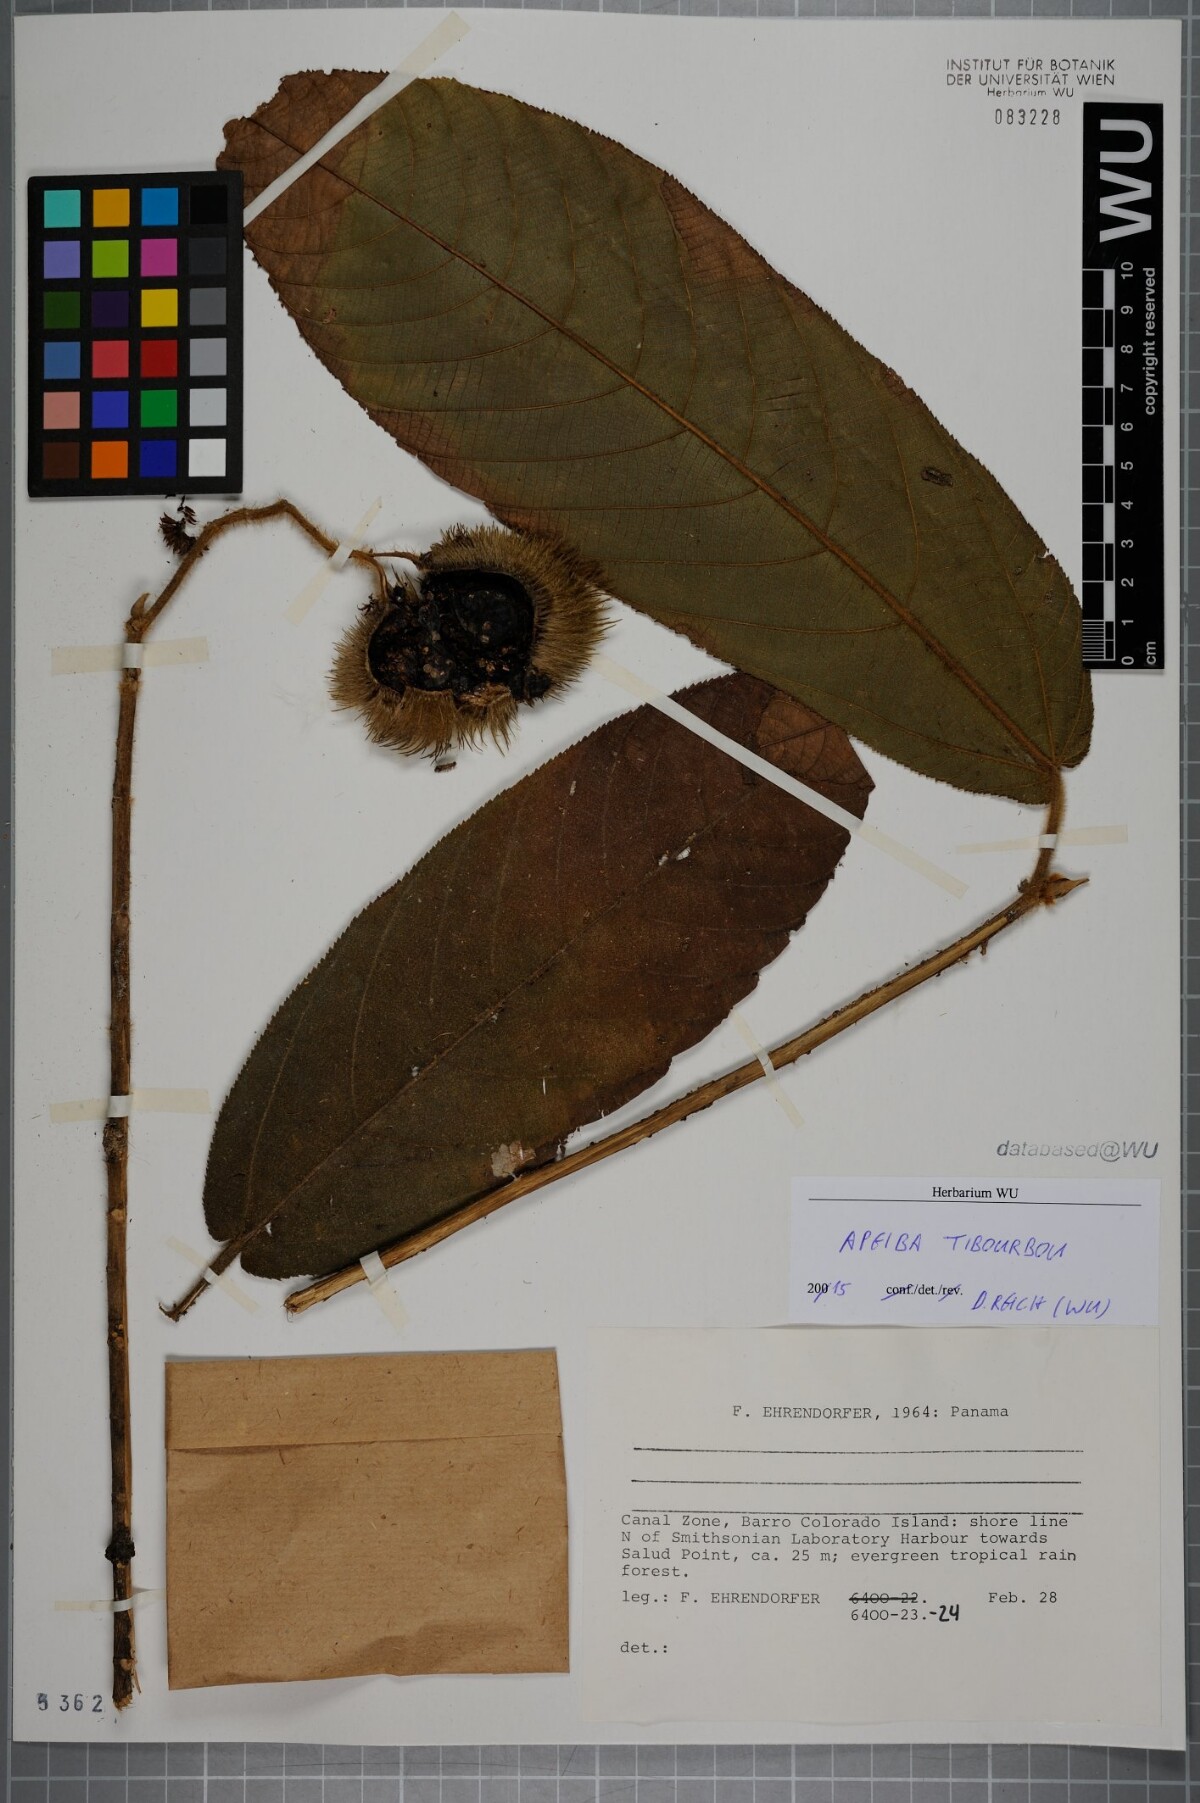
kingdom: Plantae
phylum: Tracheophyta
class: Magnoliopsida
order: Malvales
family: Malvaceae
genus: Apeiba
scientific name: Apeiba tibourbou
